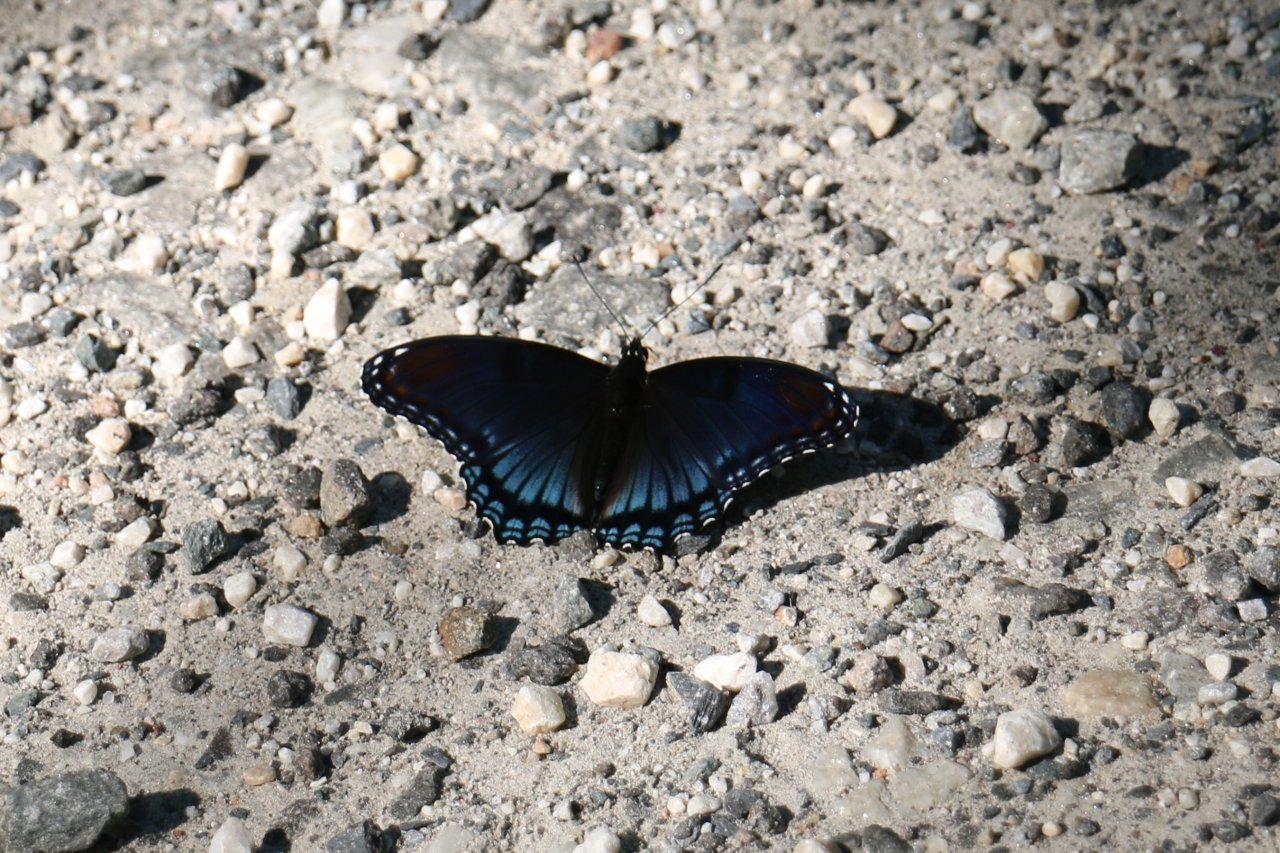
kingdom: Animalia
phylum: Arthropoda
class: Insecta
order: Lepidoptera
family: Nymphalidae
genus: Limenitis
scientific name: Limenitis arthemis
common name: Red-spotted Admiral
